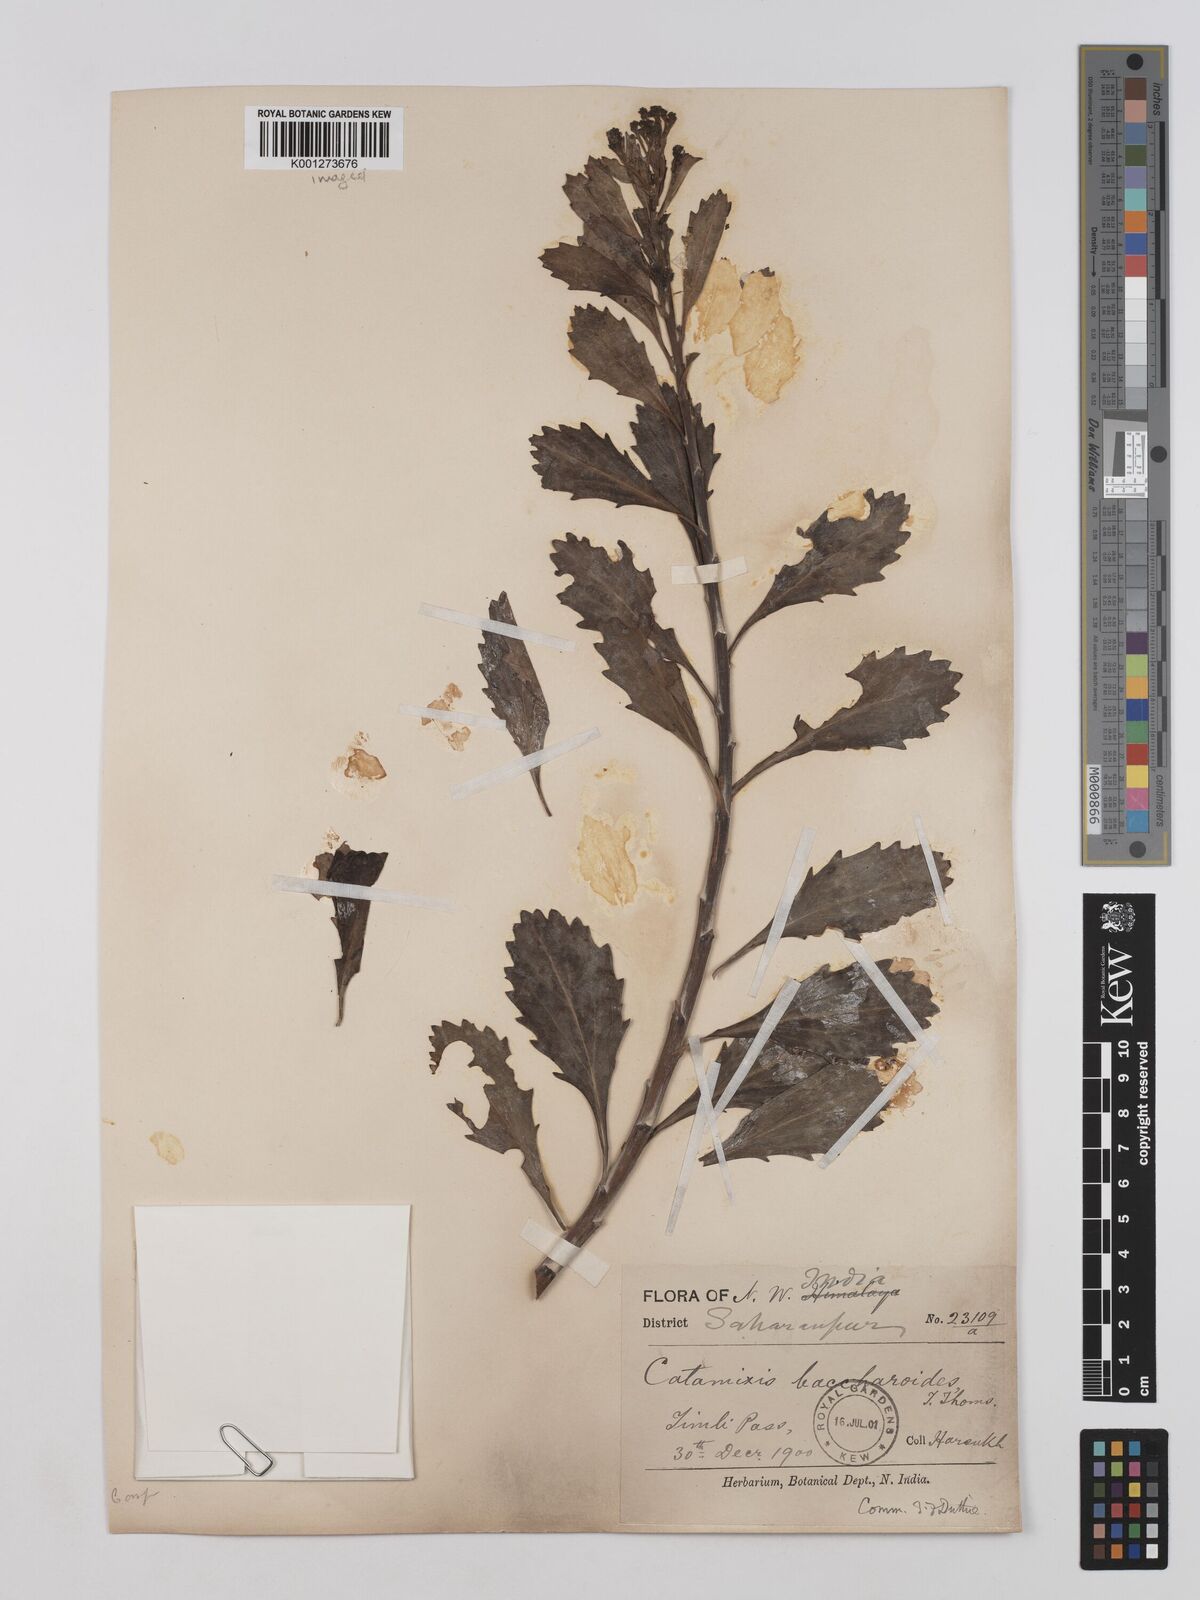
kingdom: Plantae
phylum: Tracheophyta
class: Magnoliopsida
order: Asterales
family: Asteraceae
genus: Catamixis
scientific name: Catamixis baccharoides
